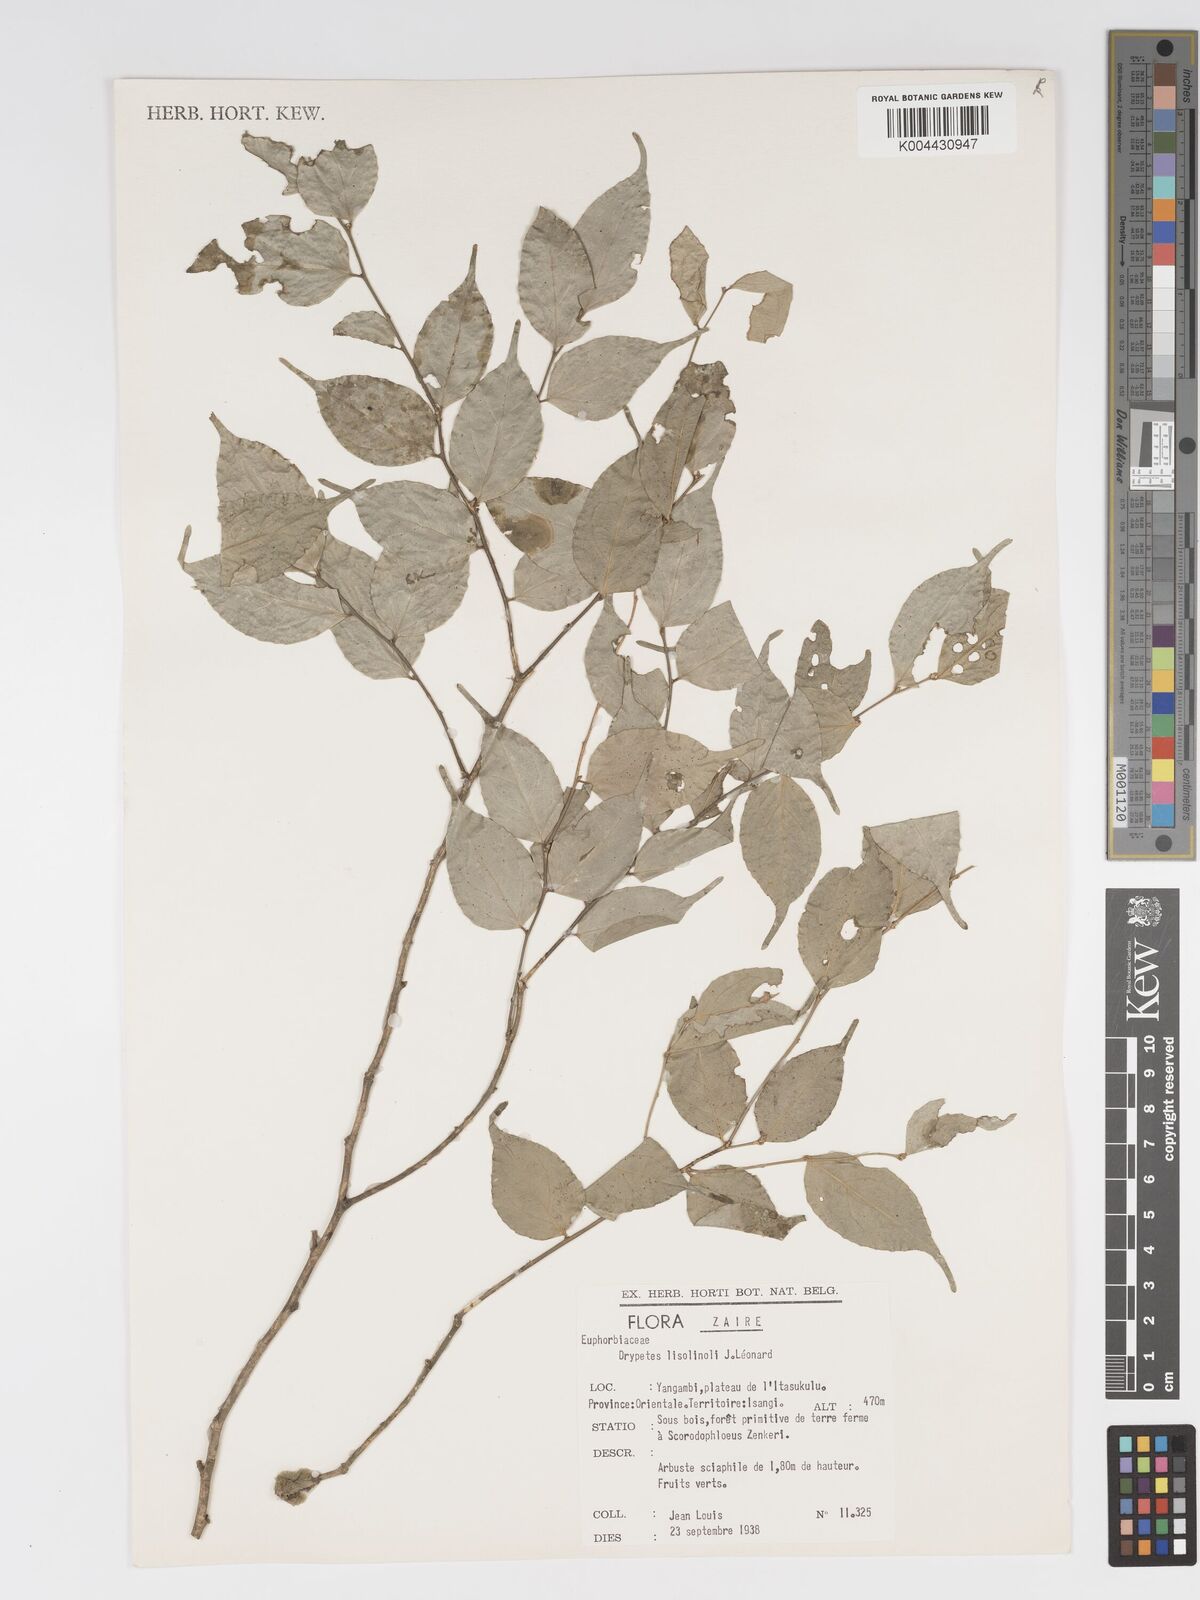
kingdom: Plantae
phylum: Tracheophyta
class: Magnoliopsida
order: Malpighiales
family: Putranjivaceae
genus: Drypetes
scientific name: Drypetes
